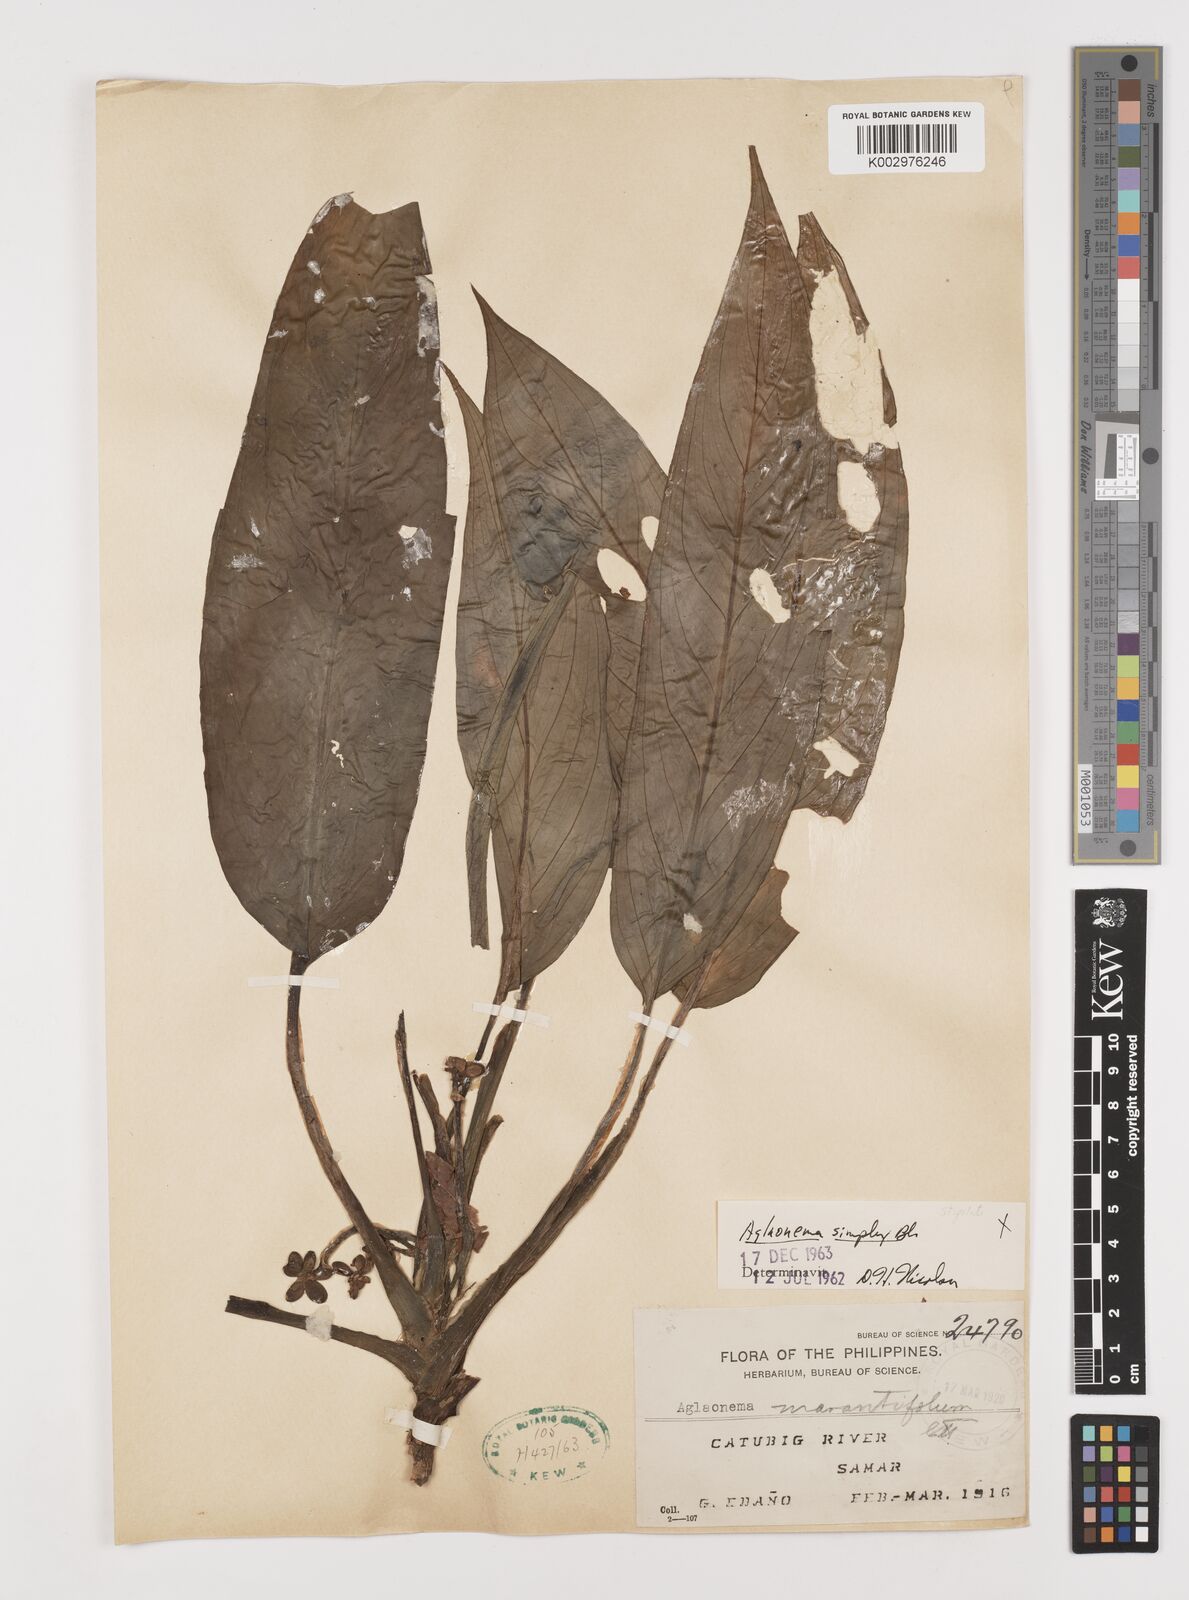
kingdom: Plantae
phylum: Tracheophyta
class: Liliopsida
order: Alismatales
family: Araceae
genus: Aglaonema
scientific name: Aglaonema simplex
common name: Malayan-sword
